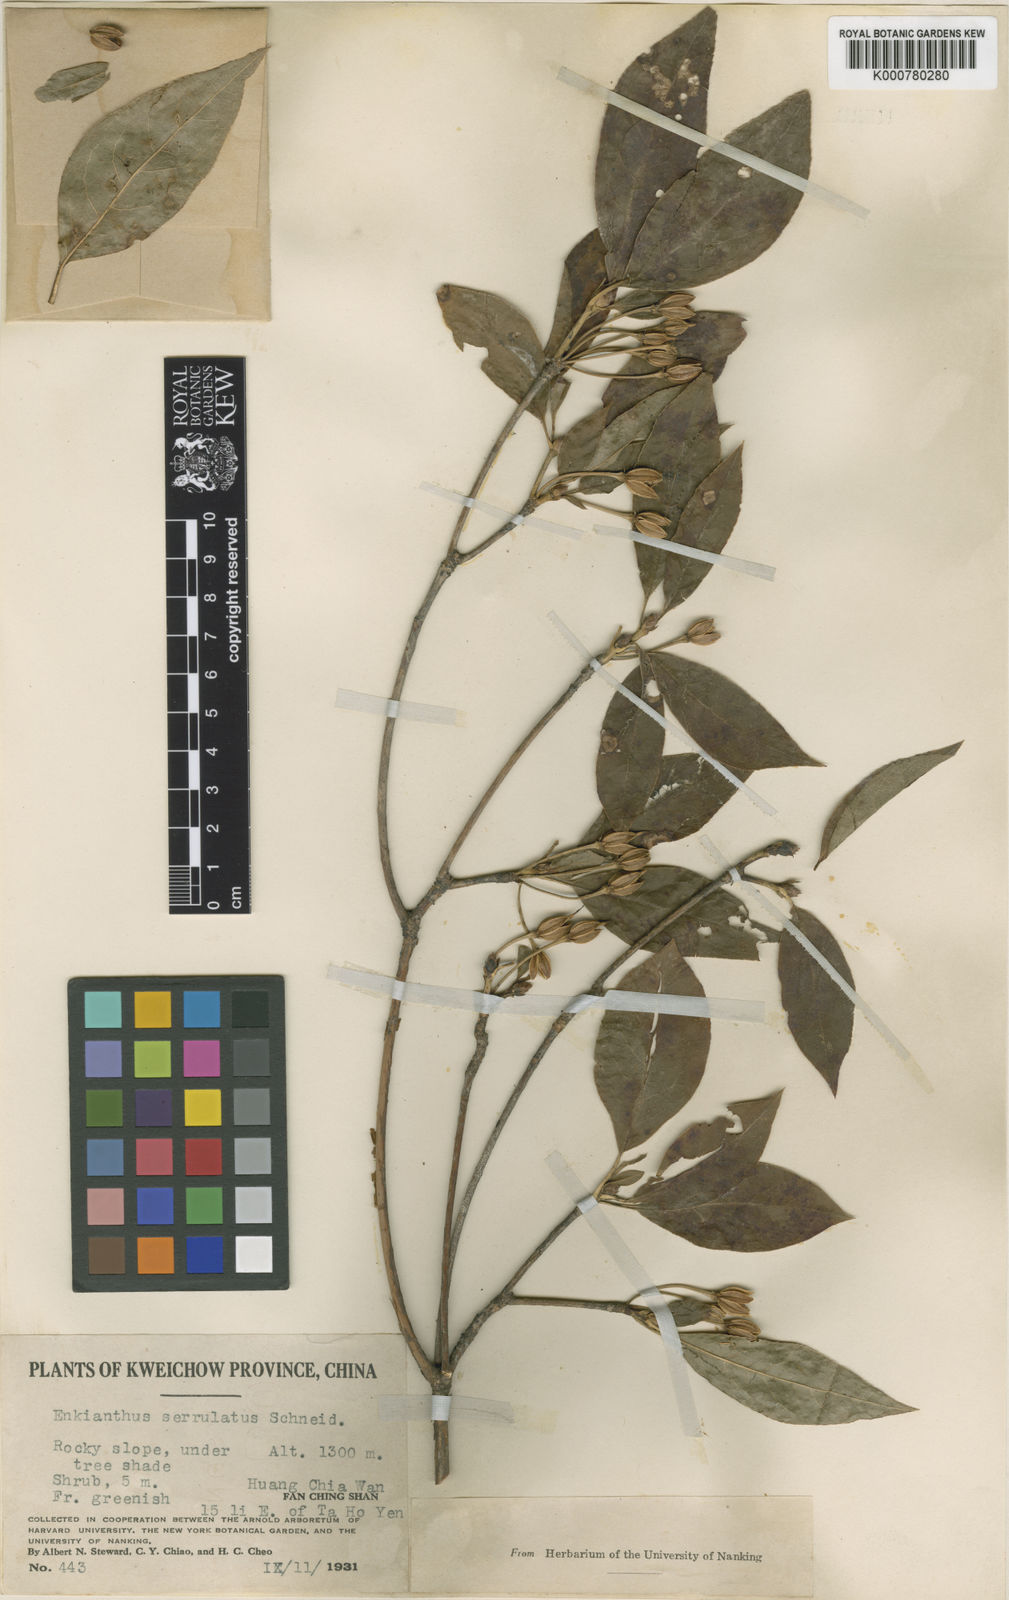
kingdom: Plantae
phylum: Tracheophyta
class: Magnoliopsida
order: Ericales
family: Ericaceae
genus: Enkianthus
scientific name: Enkianthus serrulatus
